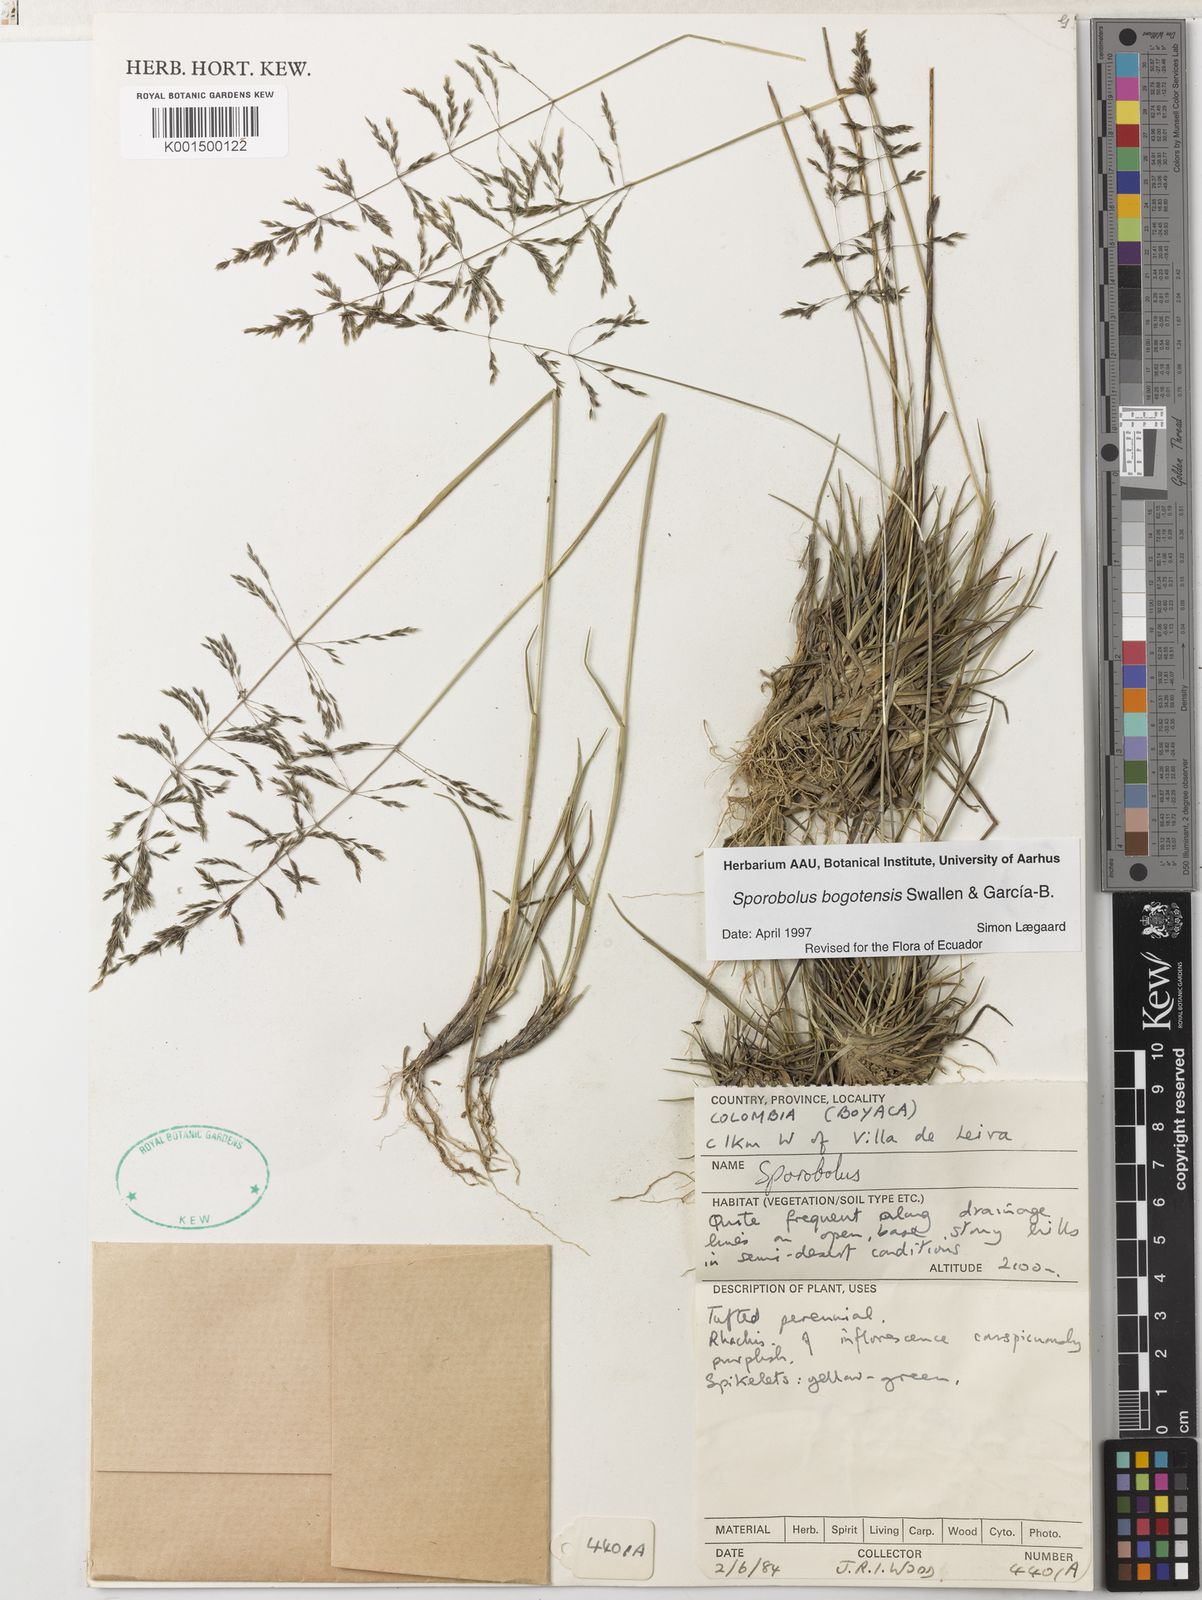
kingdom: Plantae
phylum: Tracheophyta
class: Liliopsida
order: Poales
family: Poaceae
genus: Sporobolus
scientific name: Sporobolus bogotensis
